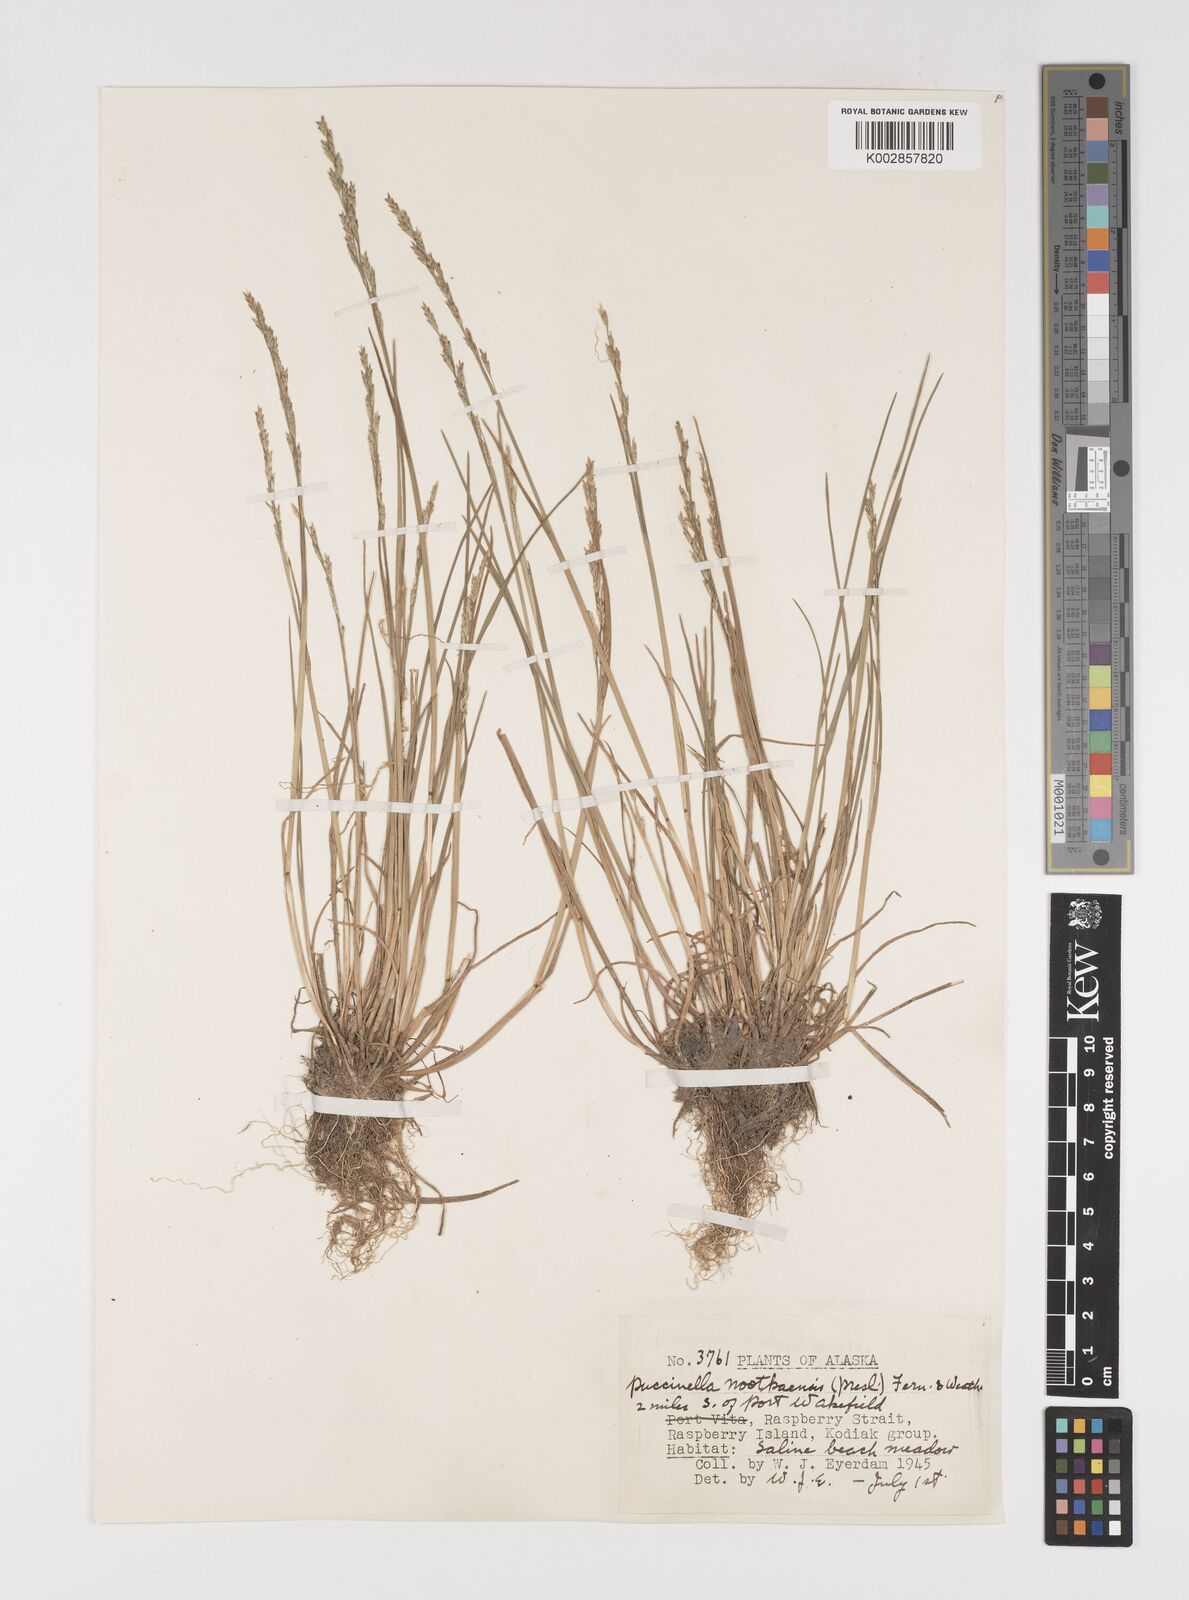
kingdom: Plantae
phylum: Tracheophyta
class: Liliopsida
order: Poales
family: Poaceae
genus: Puccinellia
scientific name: Puccinellia nutkaensis
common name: Nootka alkaligrass
